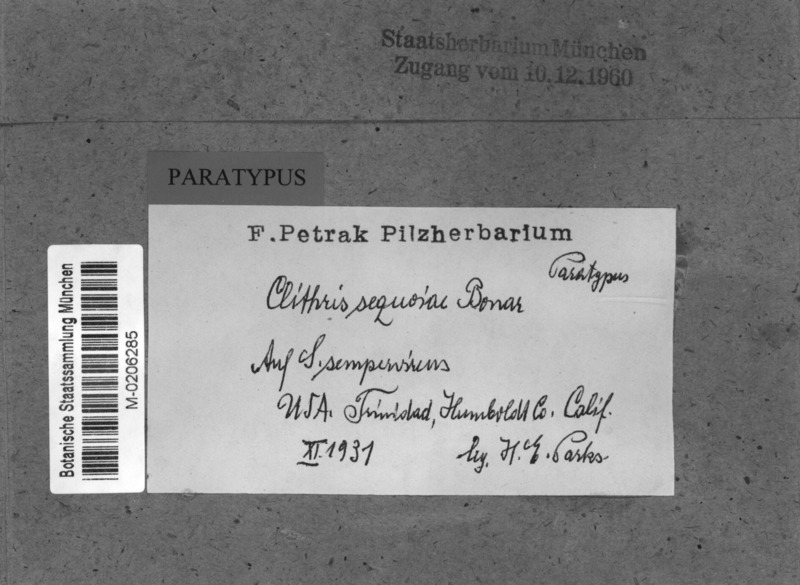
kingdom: Fungi
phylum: Ascomycota
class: Leotiomycetes
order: Helotiales
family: Cenangiaceae
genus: Clithris
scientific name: Clithris sequoiae
